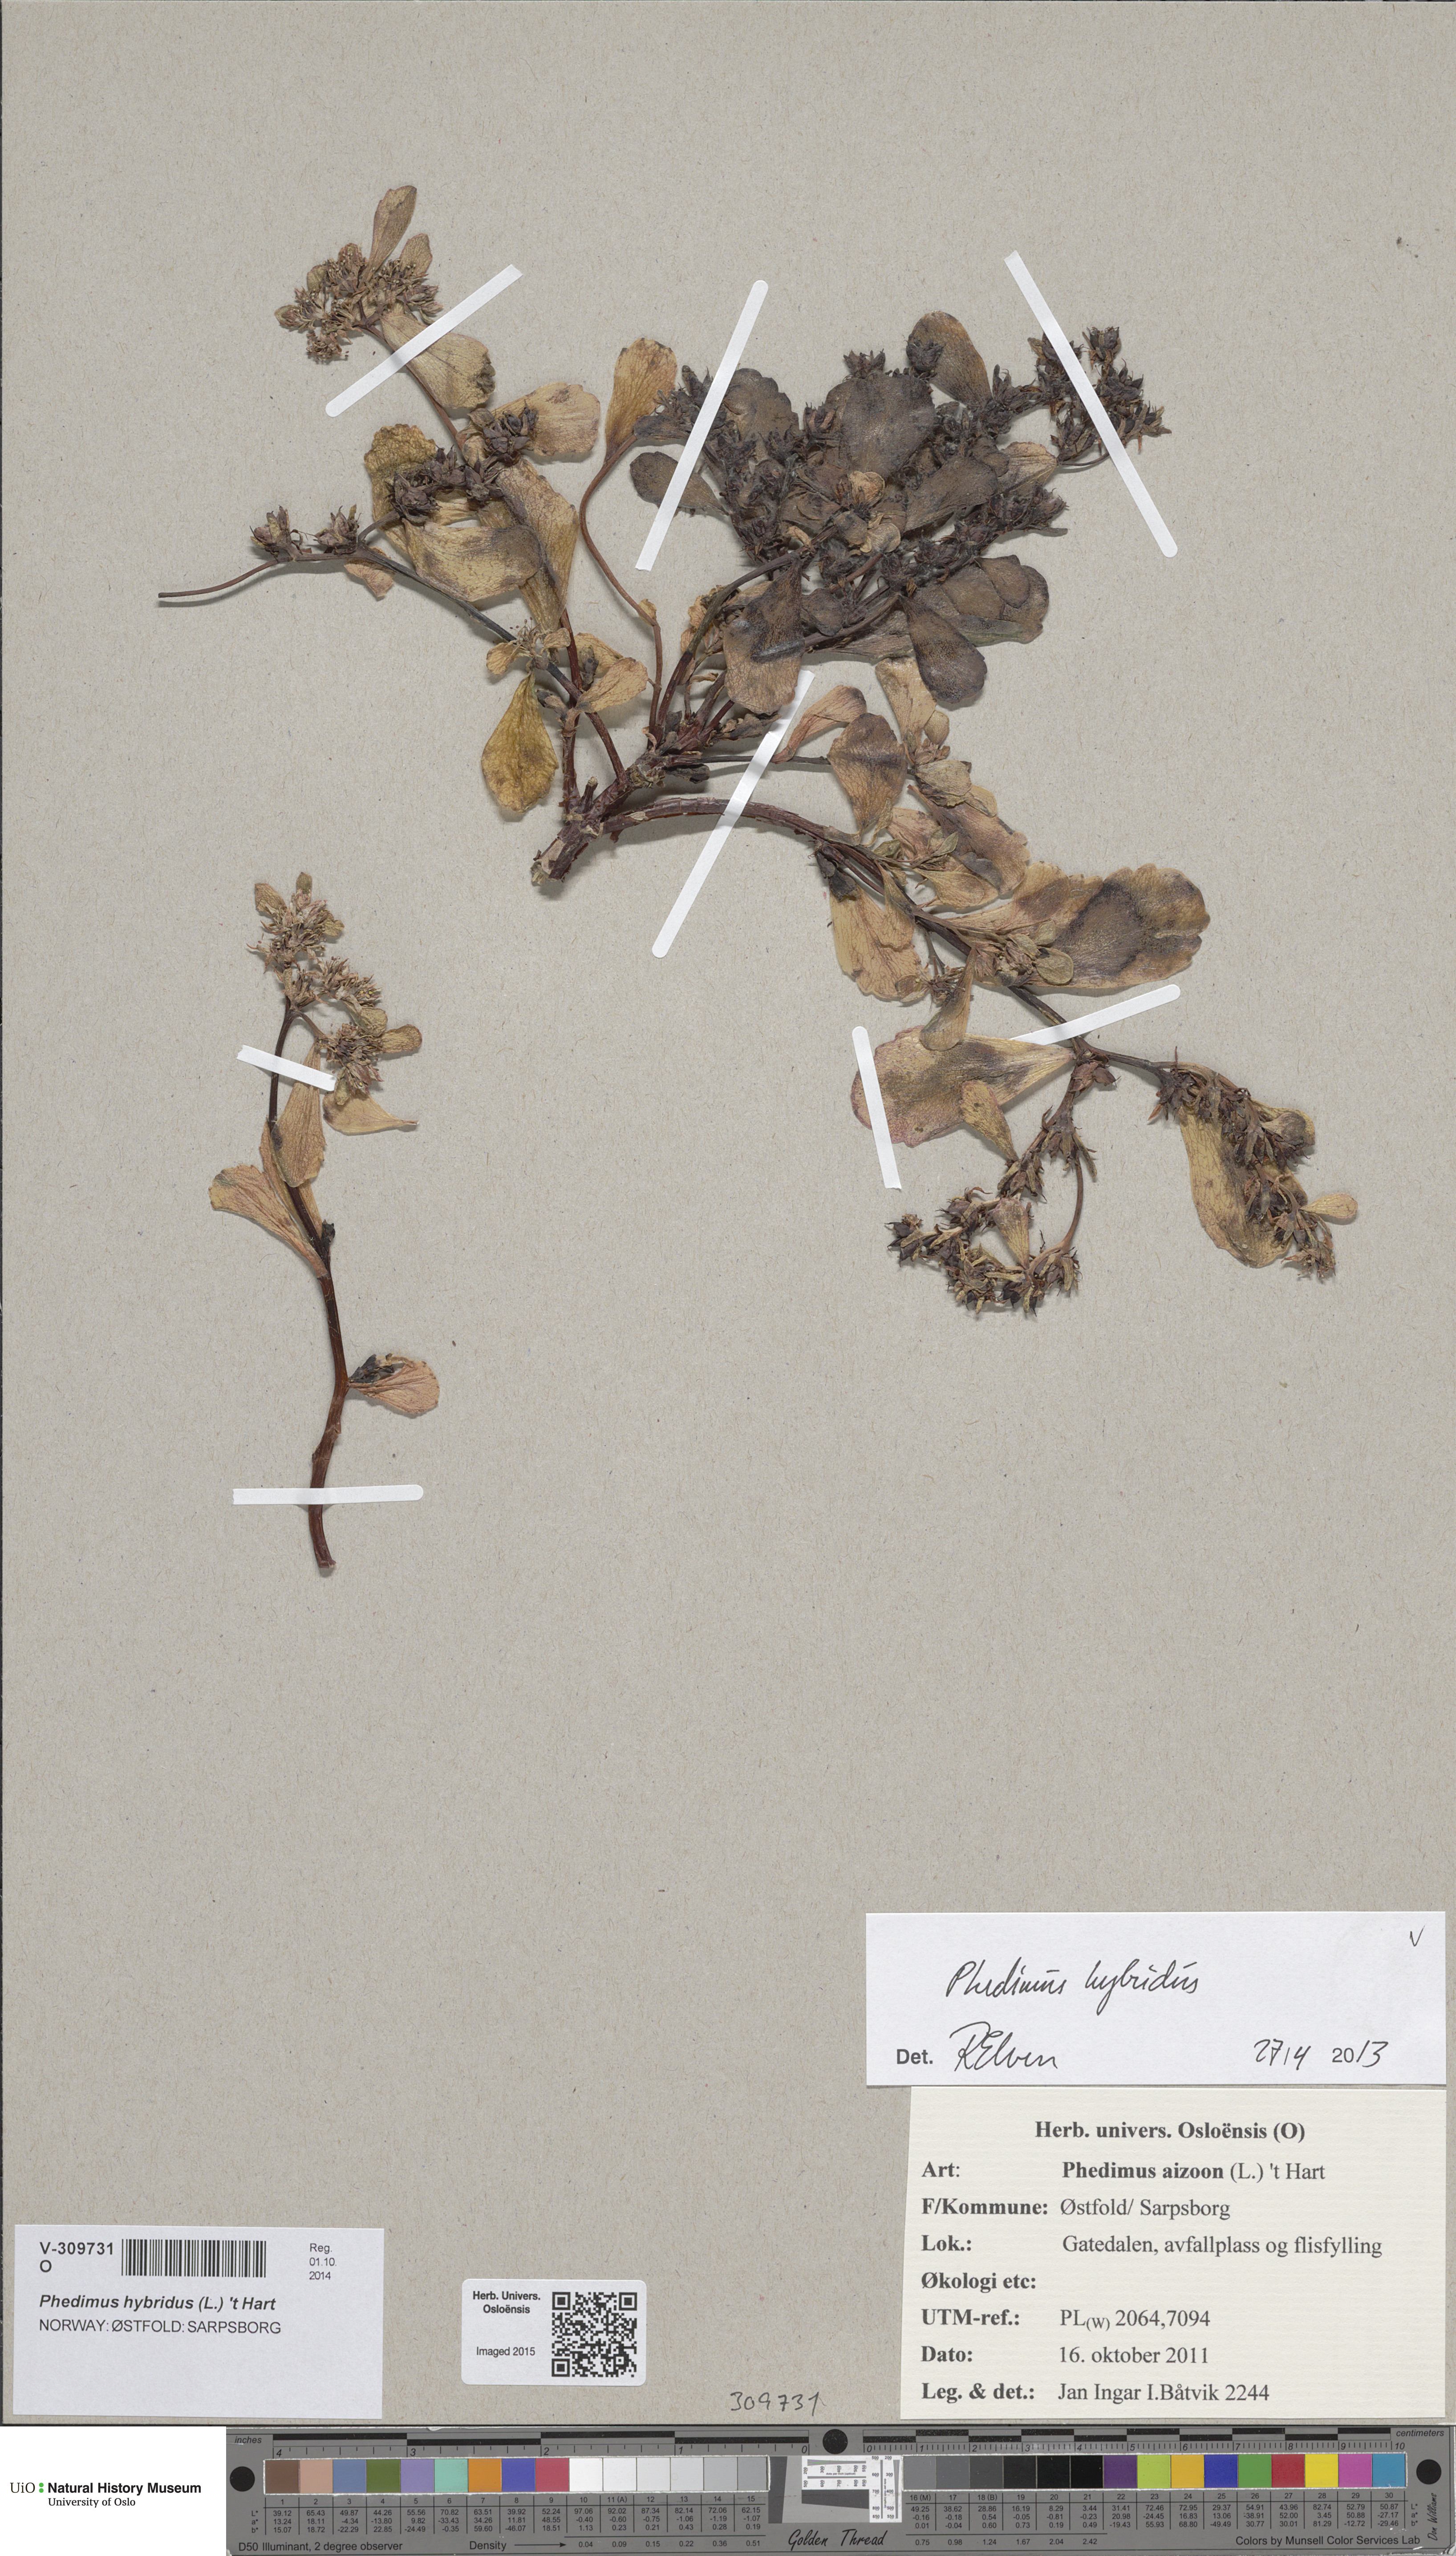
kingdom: Plantae
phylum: Tracheophyta
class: Magnoliopsida
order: Saxifragales
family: Crassulaceae
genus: Phedimus
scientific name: Phedimus hybridus
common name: Hybrid stonecrop
